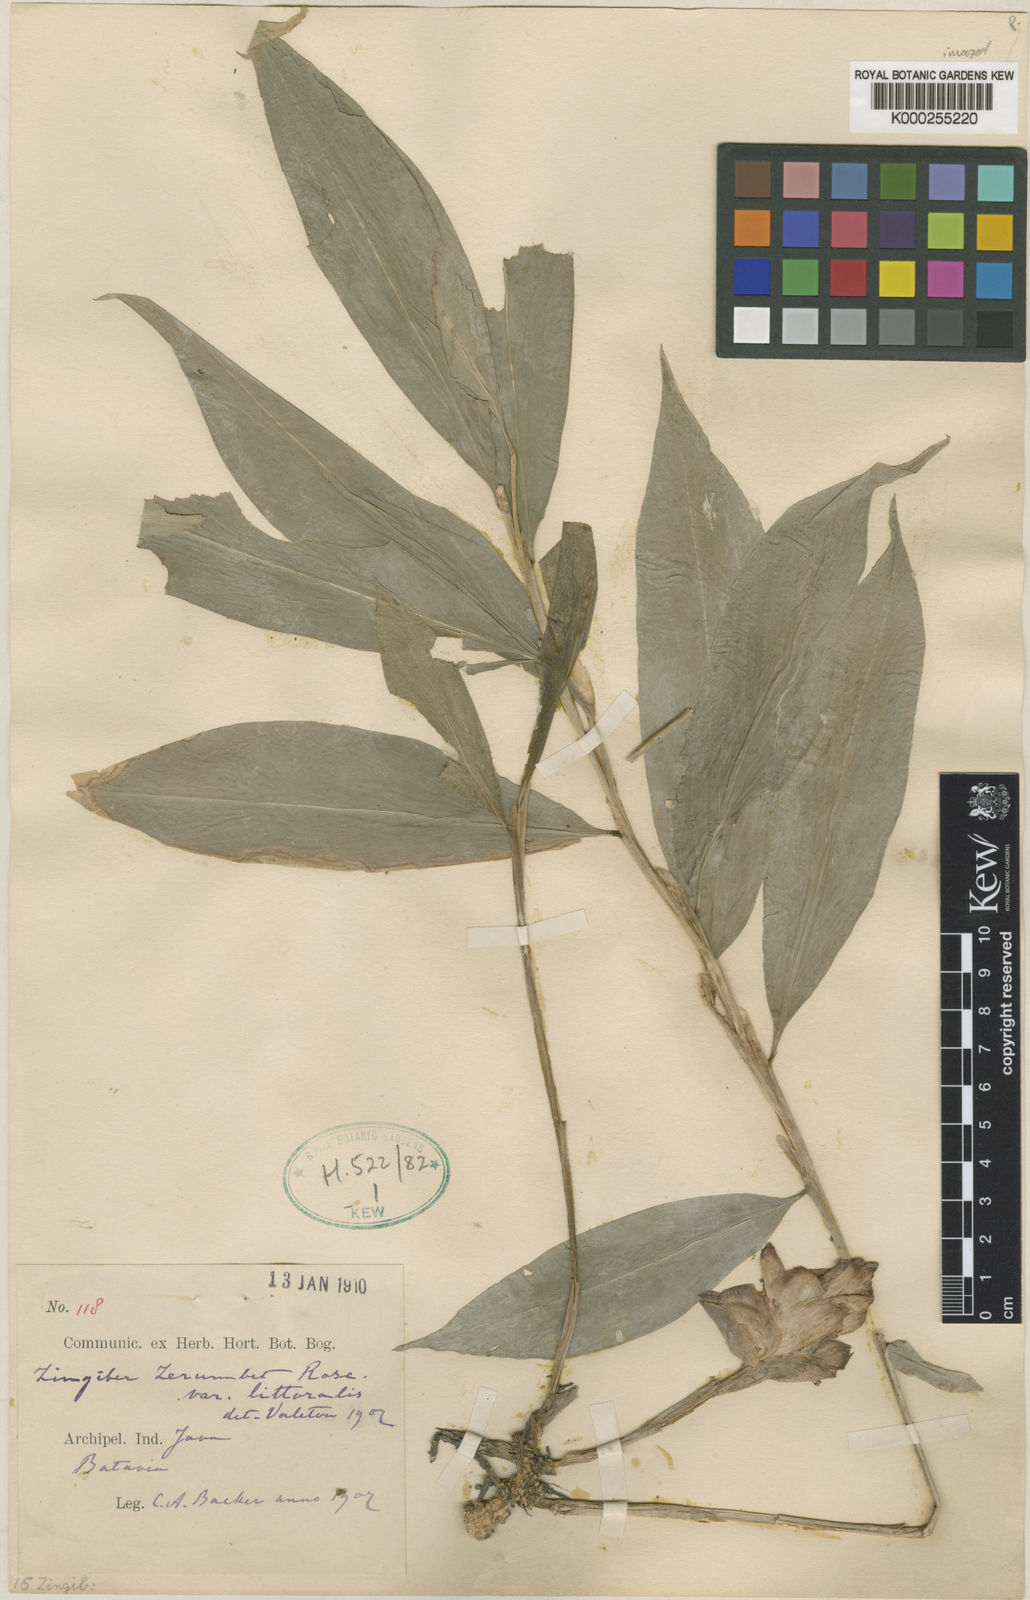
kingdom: Plantae
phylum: Tracheophyta
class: Liliopsida
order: Zingiberales
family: Zingiberaceae
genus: Zingiber
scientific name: Zingiber zerumbet
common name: Bitter ginger
